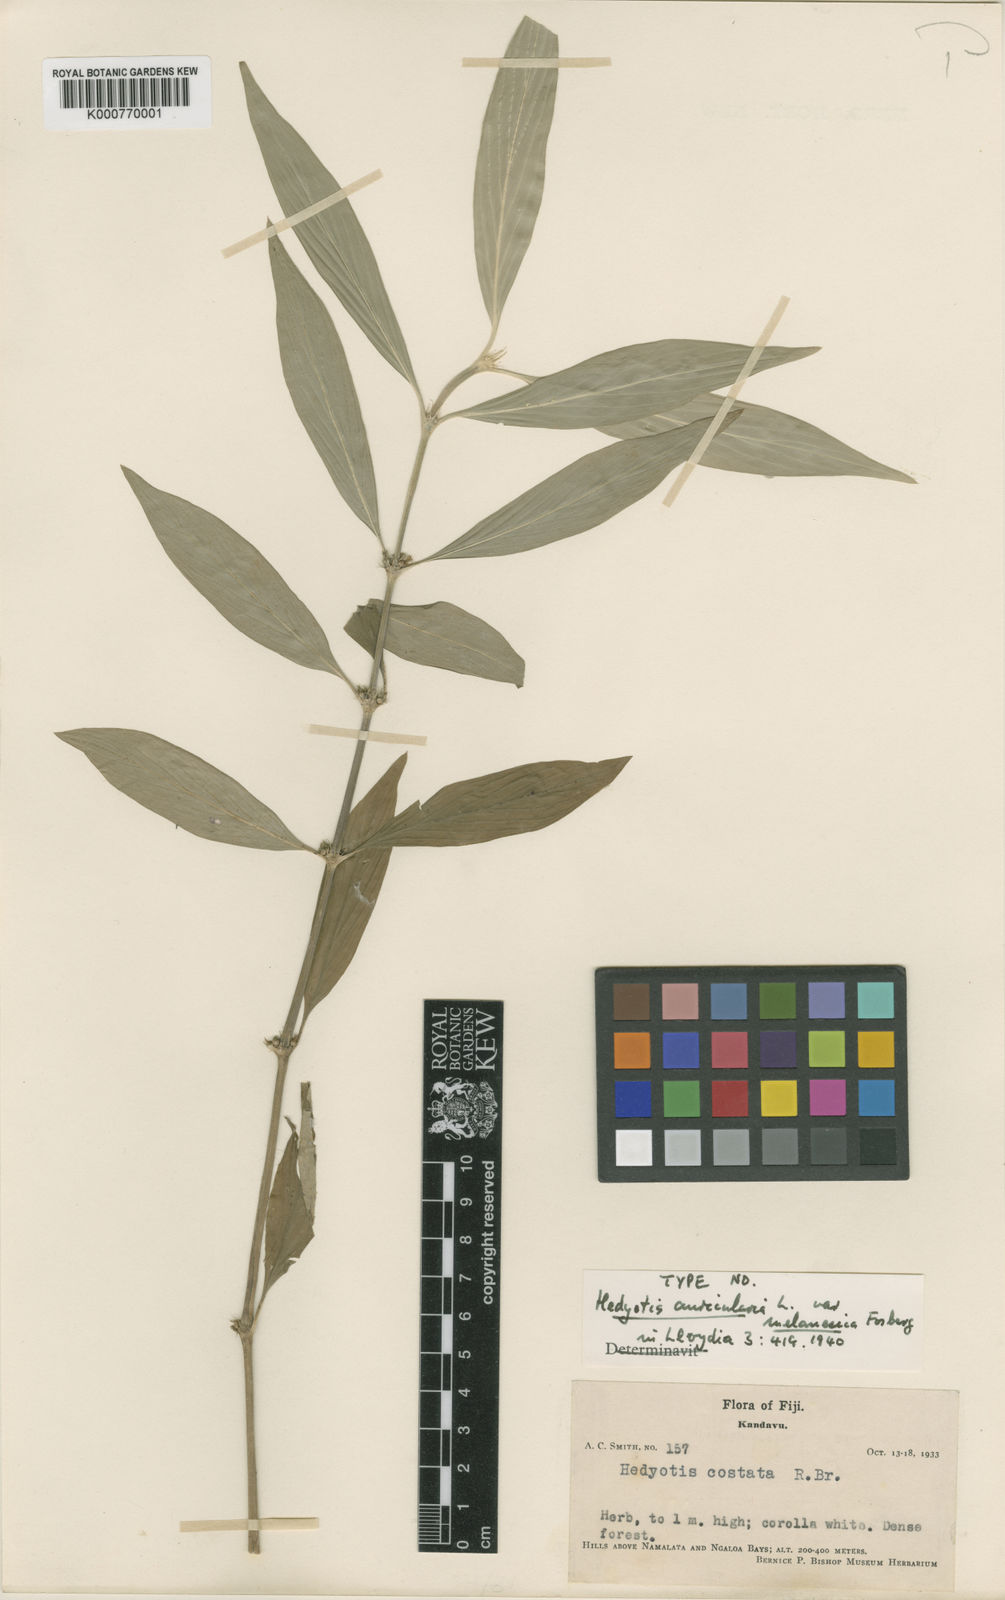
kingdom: Plantae
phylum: Tracheophyta
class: Magnoliopsida
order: Gentianales
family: Rubiaceae
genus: Exallage
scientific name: Exallage lapeyrousei
